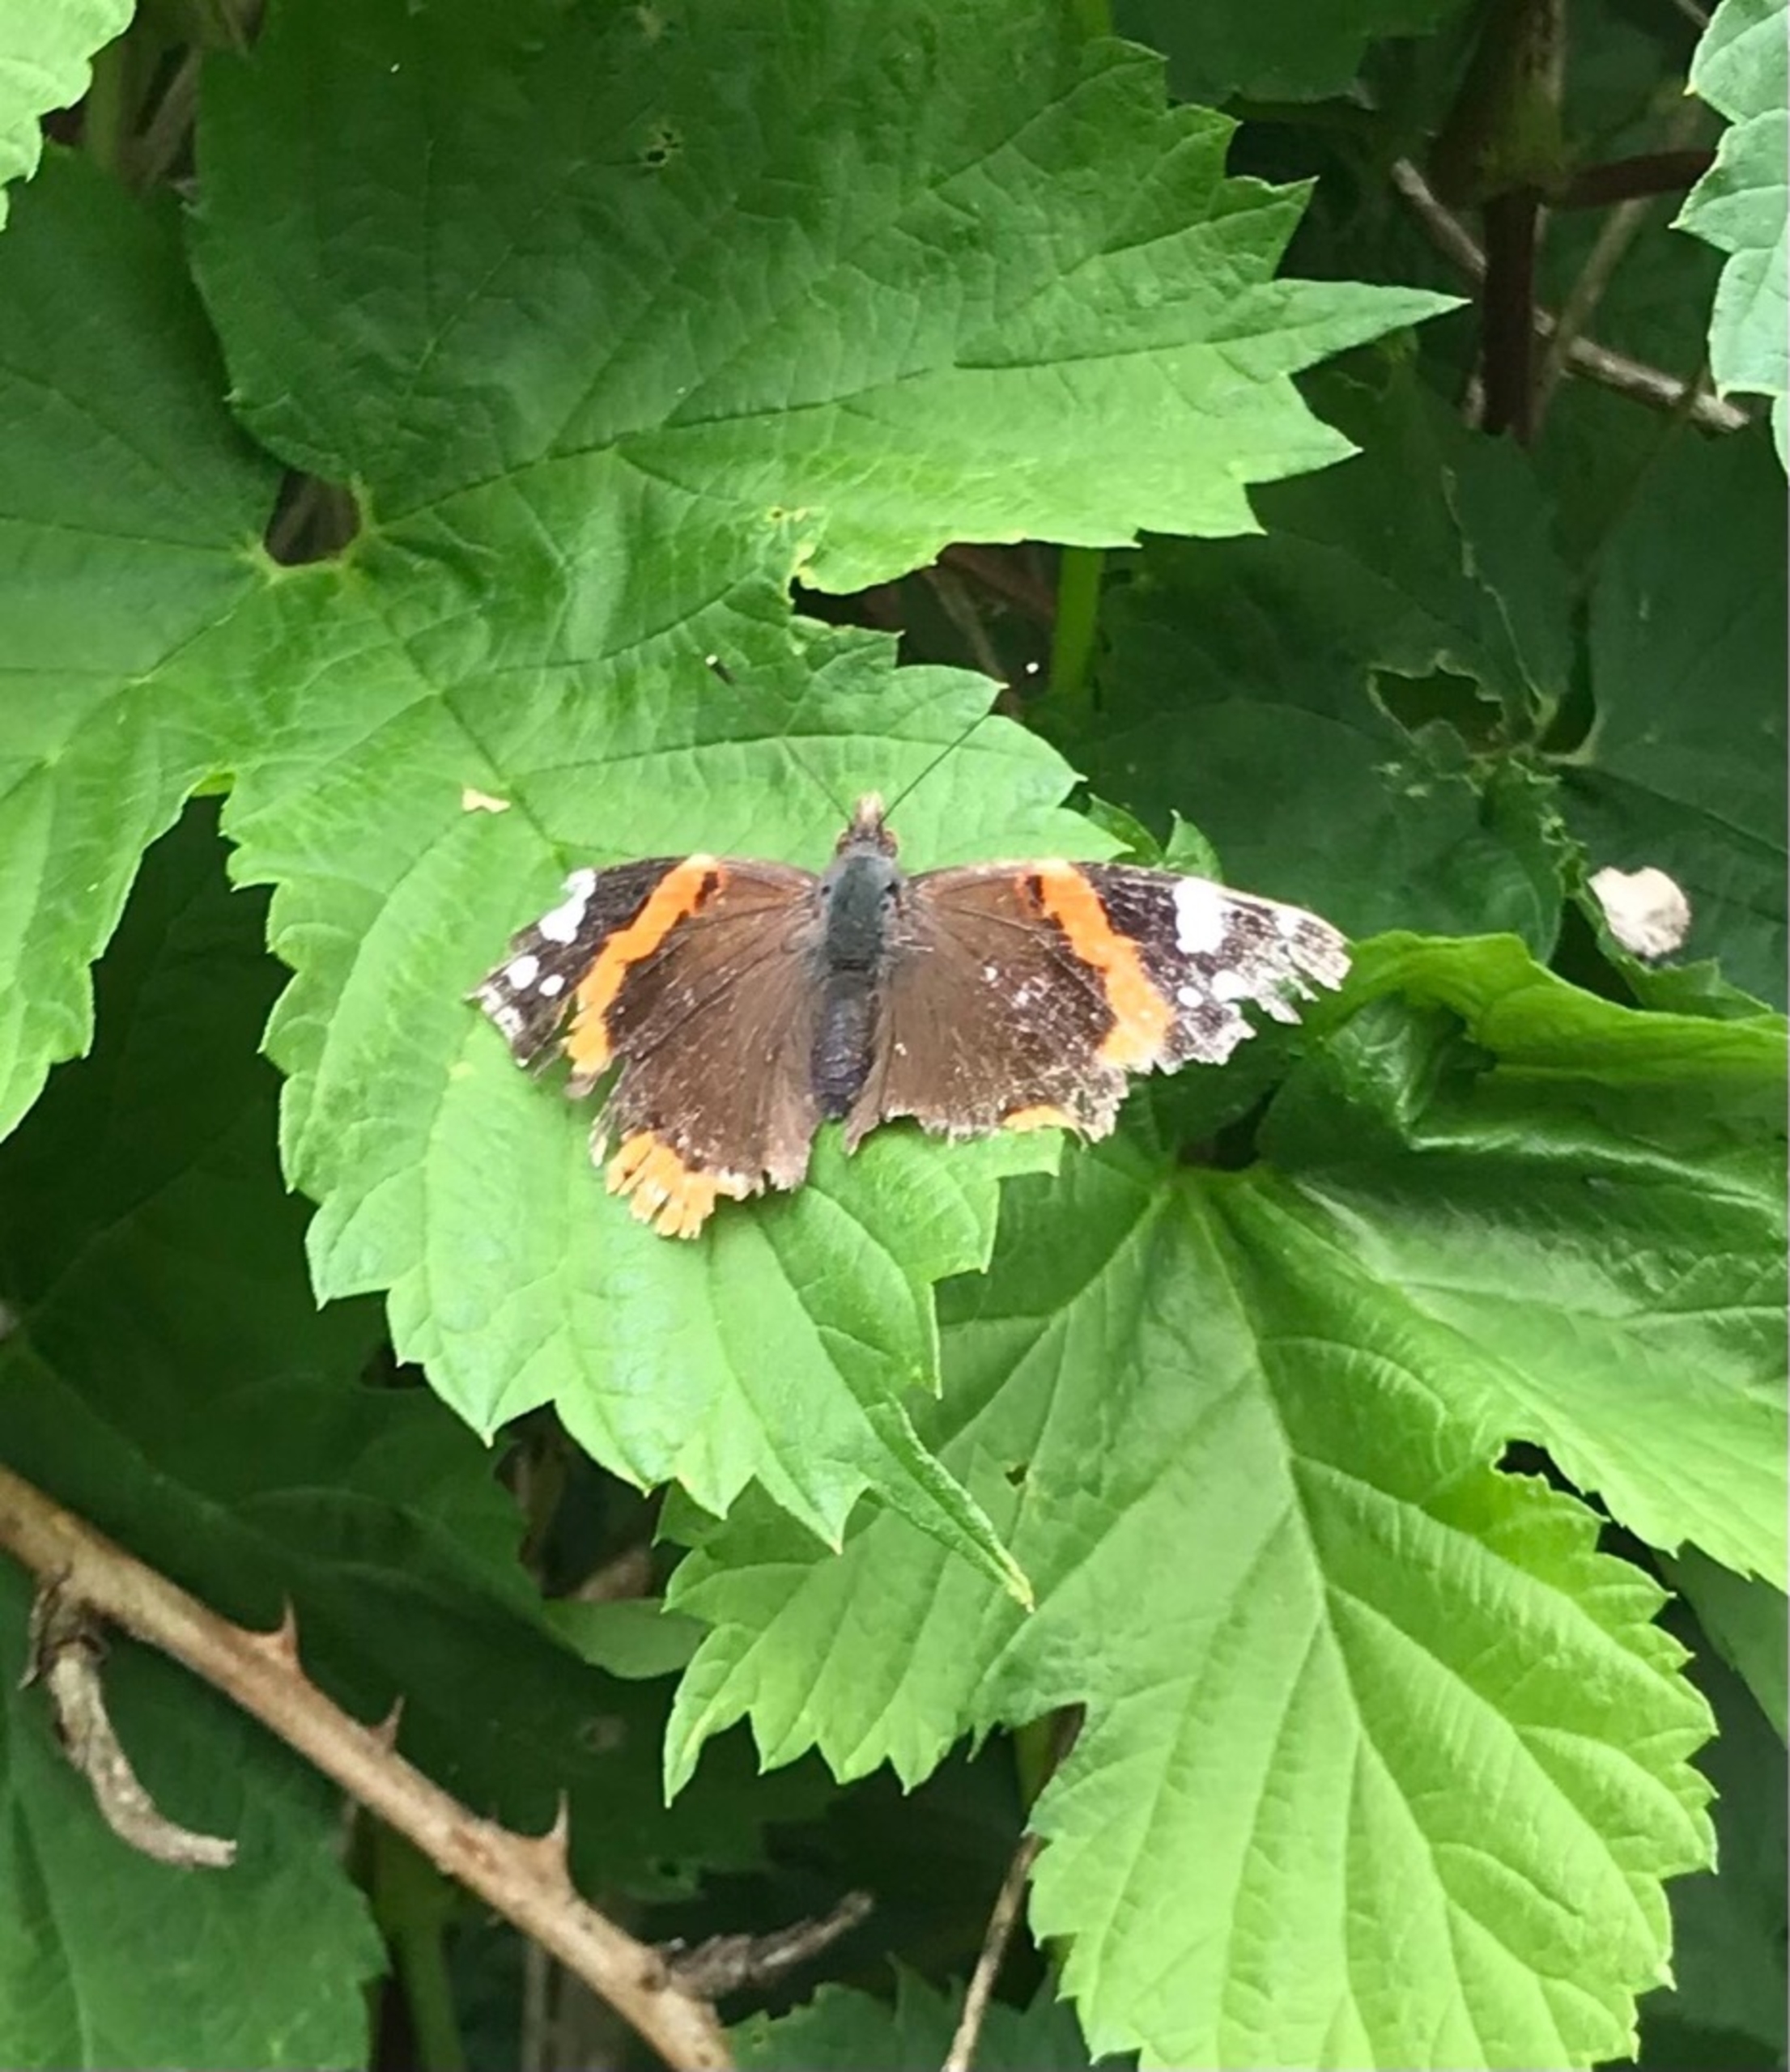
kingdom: Animalia
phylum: Arthropoda
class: Insecta
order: Lepidoptera
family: Nymphalidae
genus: Vanessa
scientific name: Vanessa atalanta
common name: Admiral
